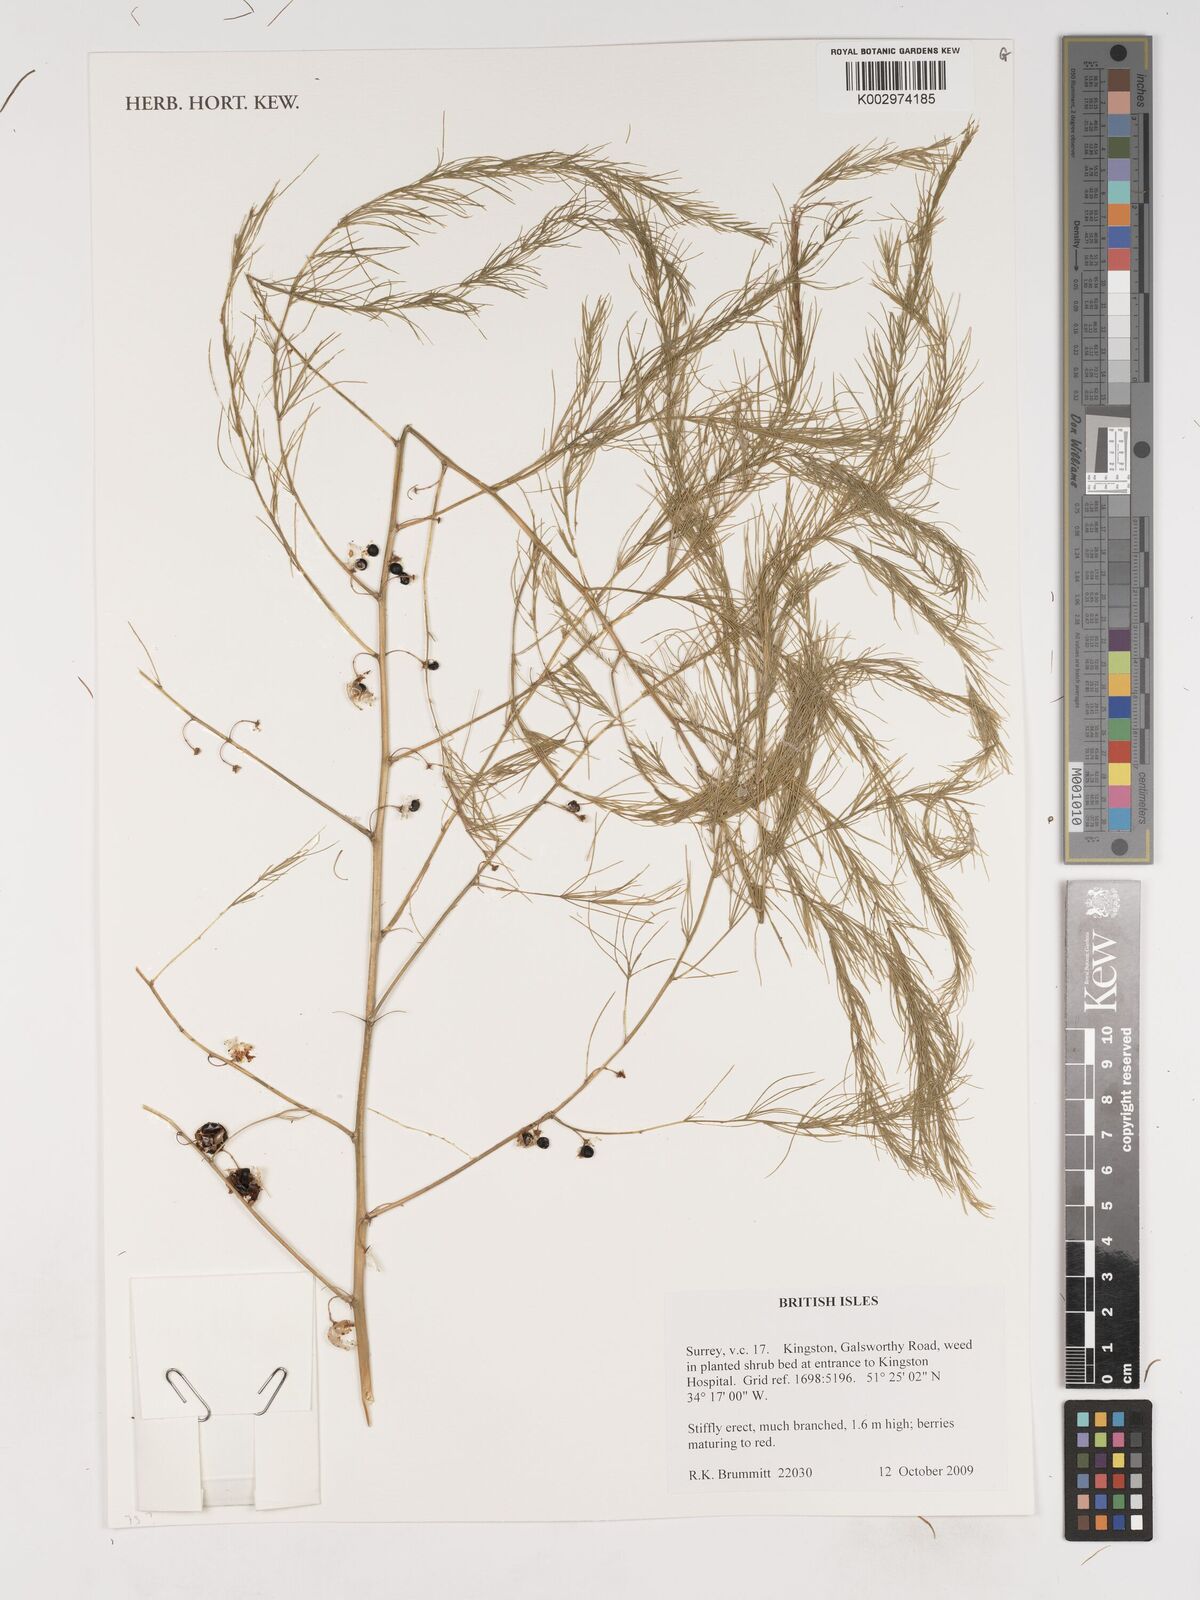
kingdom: Plantae
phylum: Tracheophyta
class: Liliopsida
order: Asparagales
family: Asparagaceae
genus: Asparagus
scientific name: Asparagus
